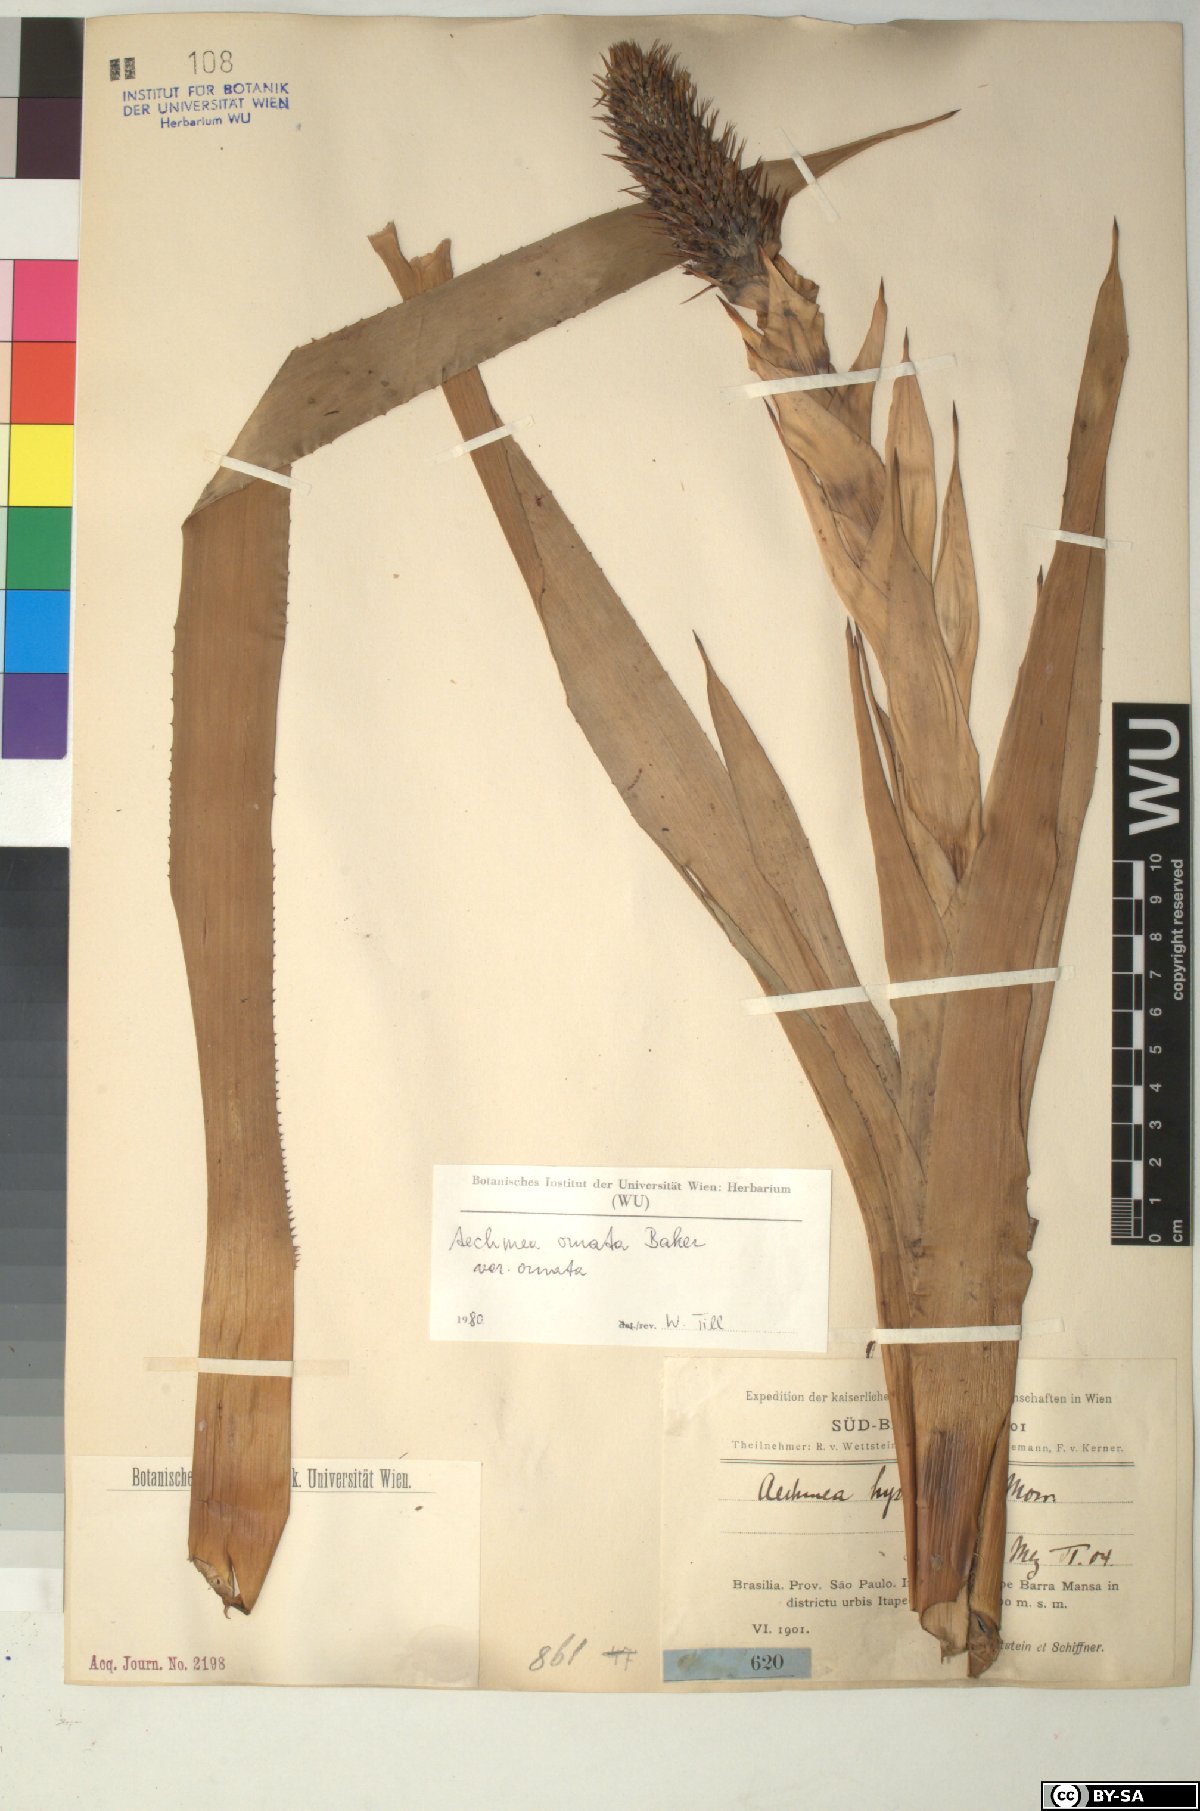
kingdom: Plantae
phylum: Tracheophyta
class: Liliopsida
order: Poales
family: Bromeliaceae
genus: Aechmea
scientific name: Aechmea
